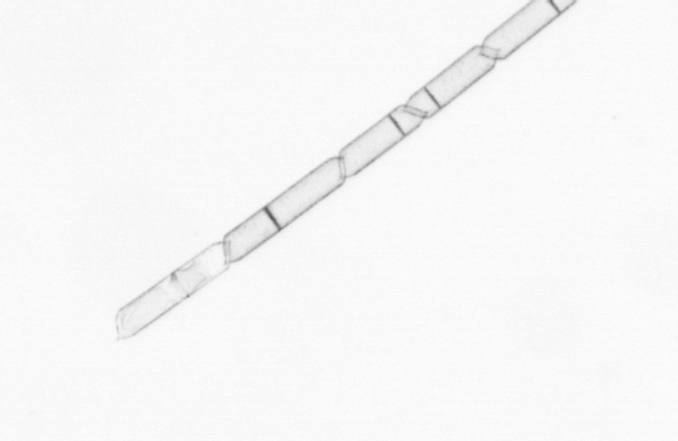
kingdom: Chromista
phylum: Ochrophyta
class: Bacillariophyceae
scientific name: Bacillariophyceae
